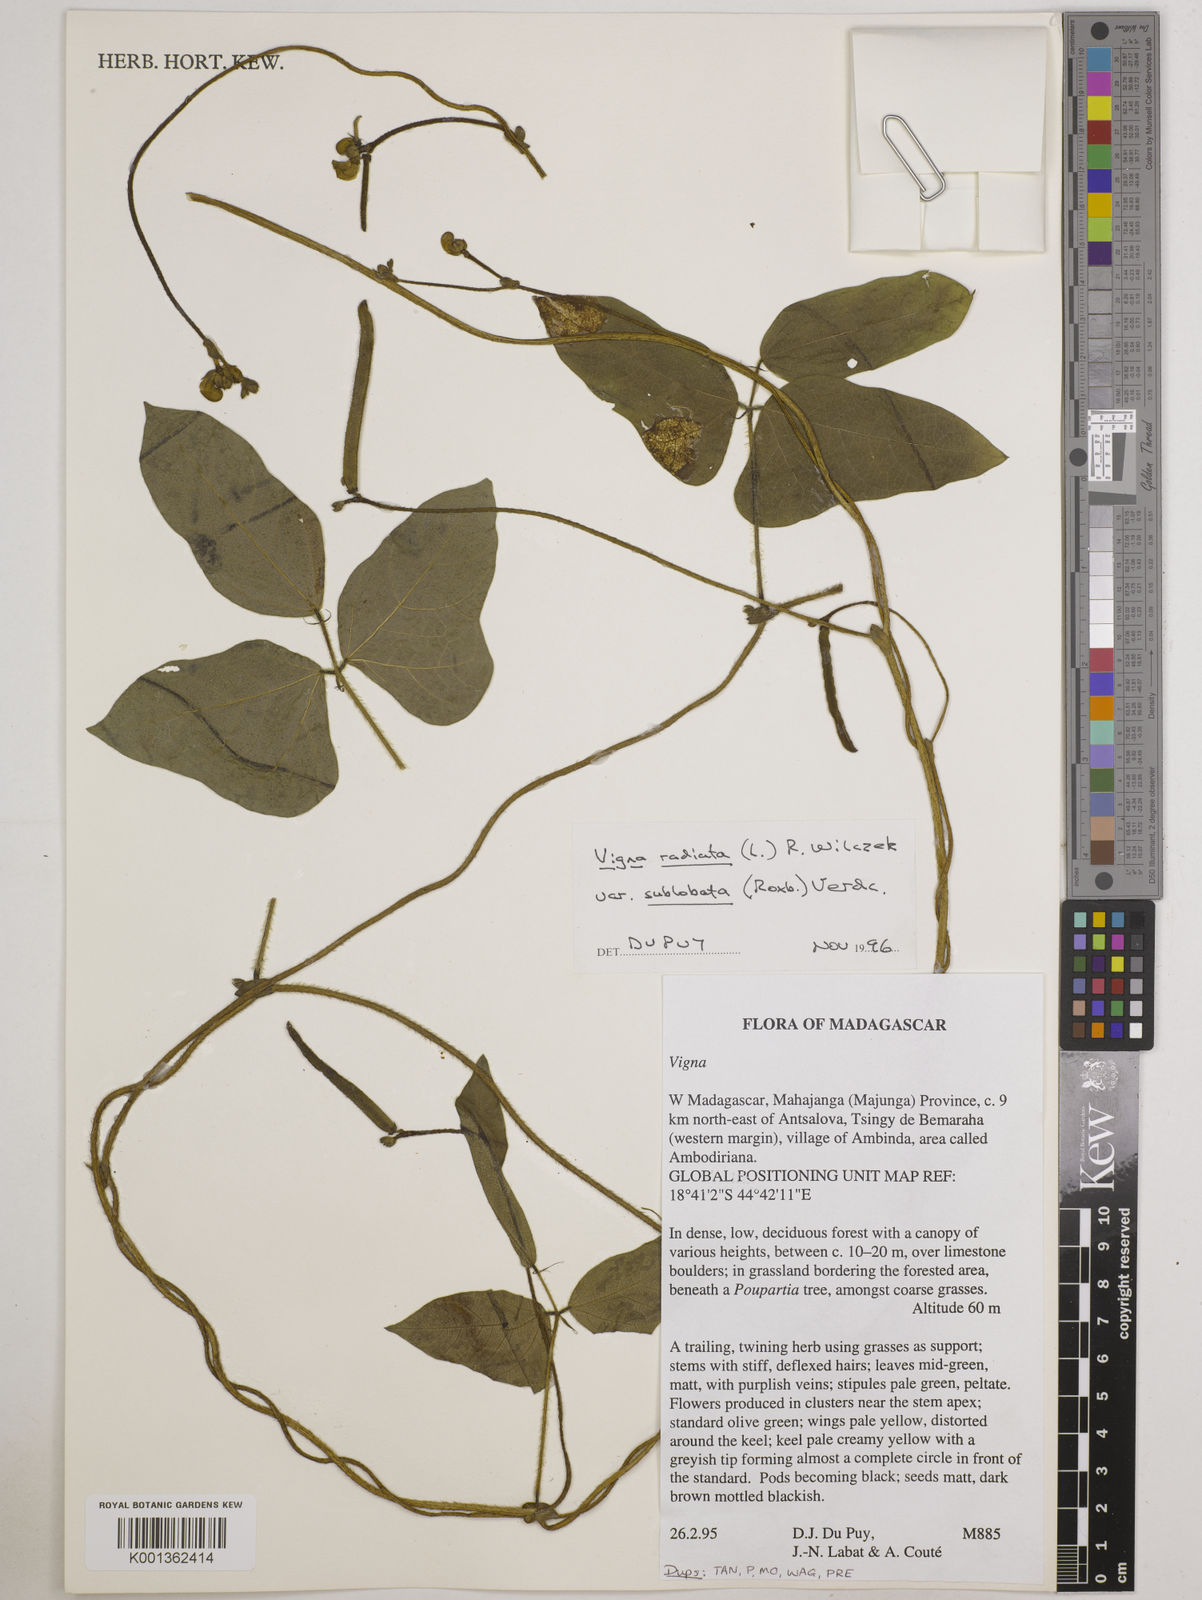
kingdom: Plantae
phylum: Tracheophyta
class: Magnoliopsida
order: Fabales
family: Fabaceae
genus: Vigna
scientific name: Vigna radiata
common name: Mung-bean
